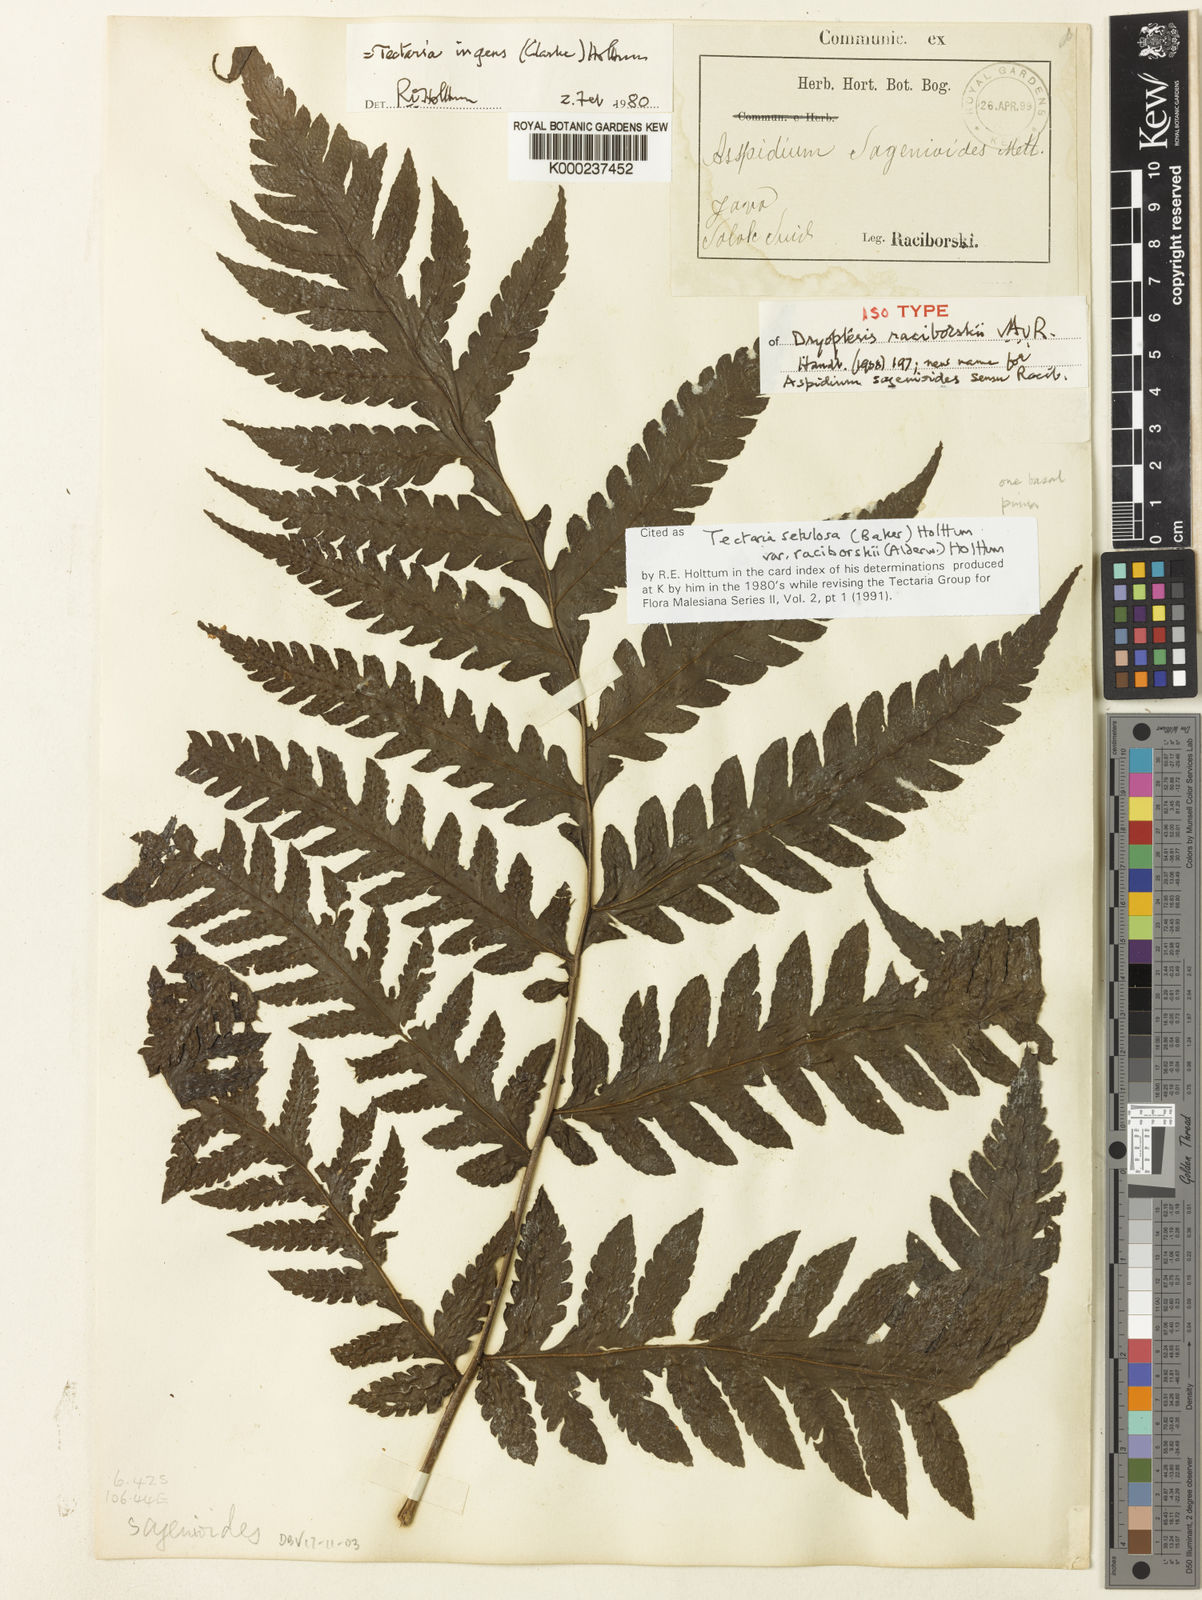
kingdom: Plantae
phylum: Tracheophyta
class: Polypodiopsida
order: Polypodiales
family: Tectariaceae
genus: Tectaria
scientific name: Tectaria setulosa
